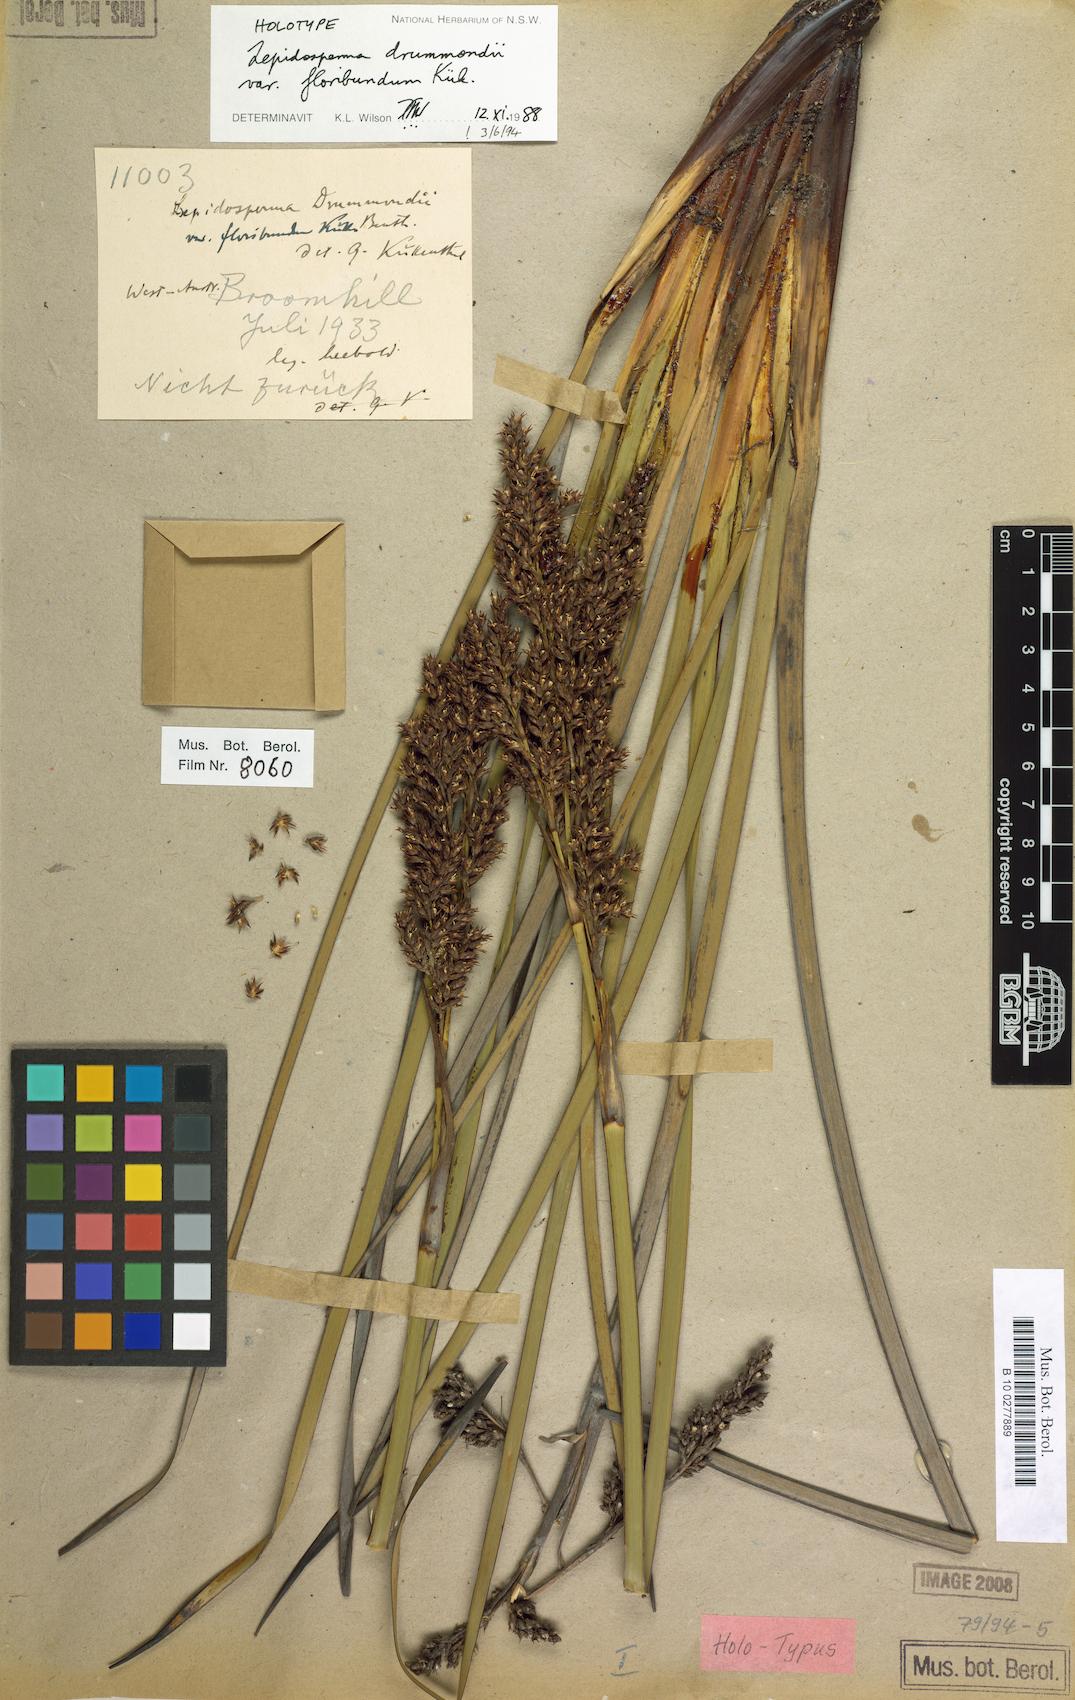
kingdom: Plantae
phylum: Tracheophyta
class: Liliopsida
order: Poales
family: Cyperaceae
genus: Lepidosperma
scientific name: Lepidosperma sanguinolentum
